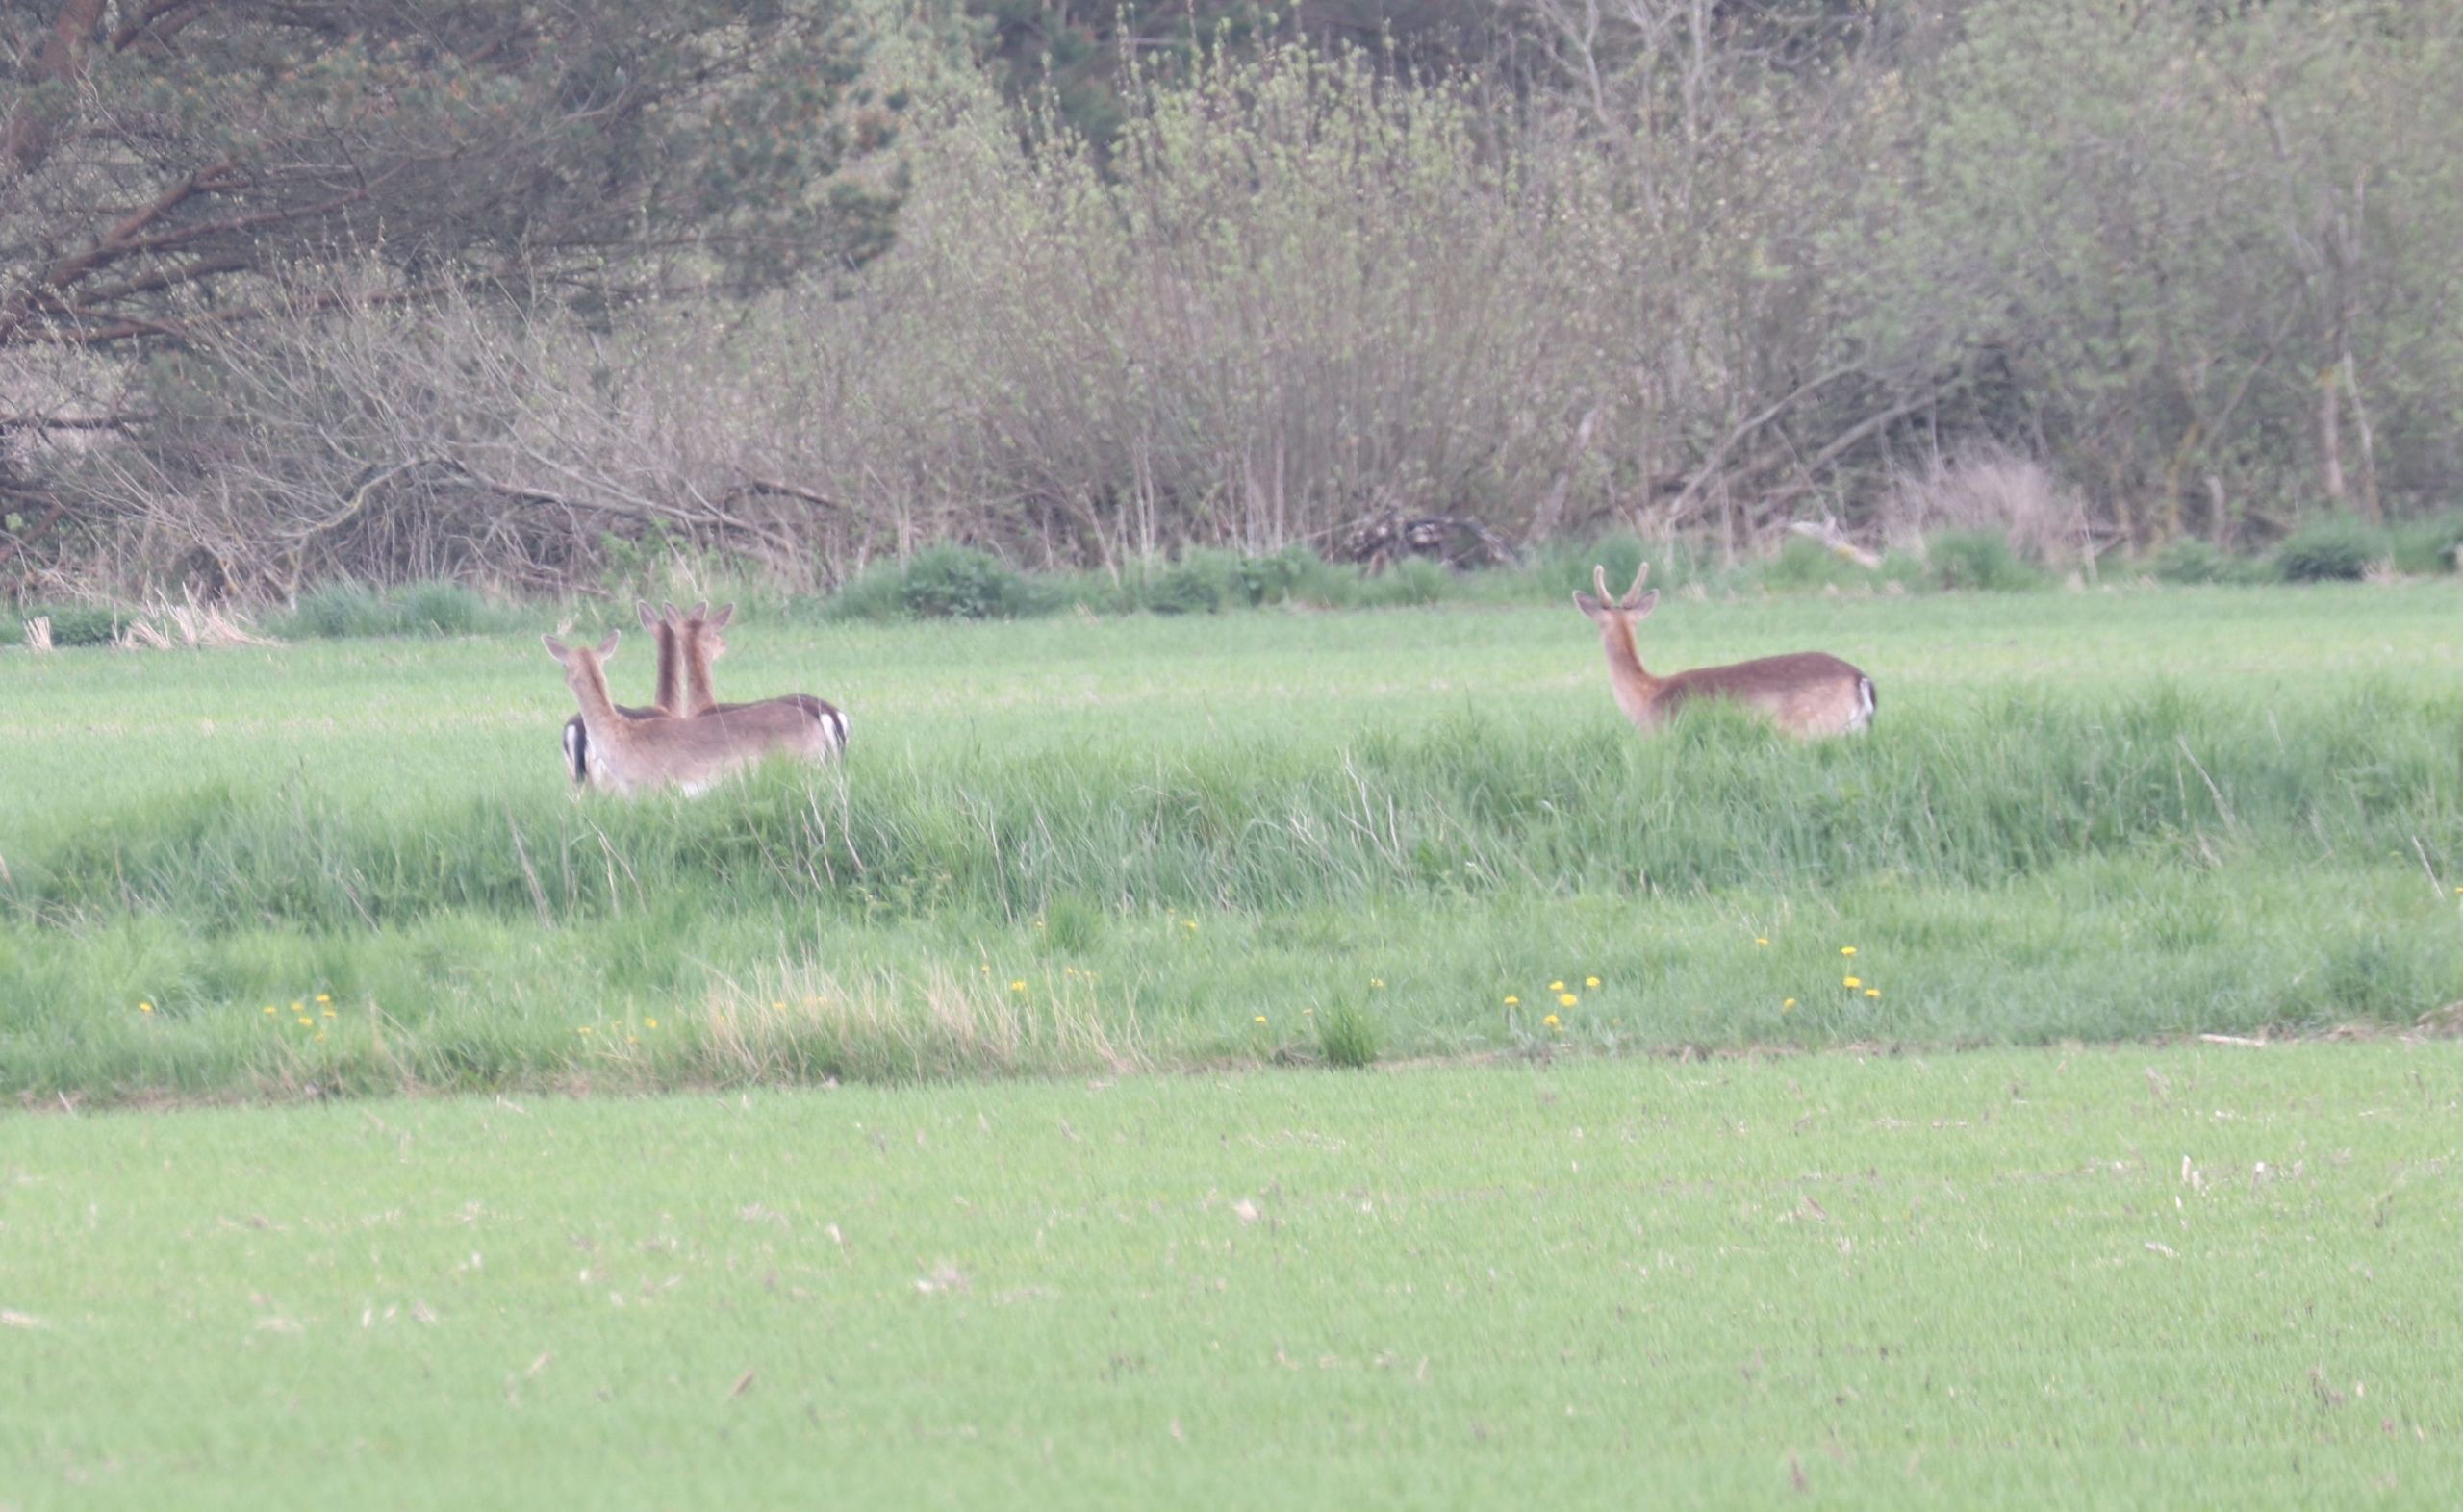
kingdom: Animalia
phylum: Chordata
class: Mammalia
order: Artiodactyla
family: Cervidae
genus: Dama
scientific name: Dama dama
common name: Dådyr
